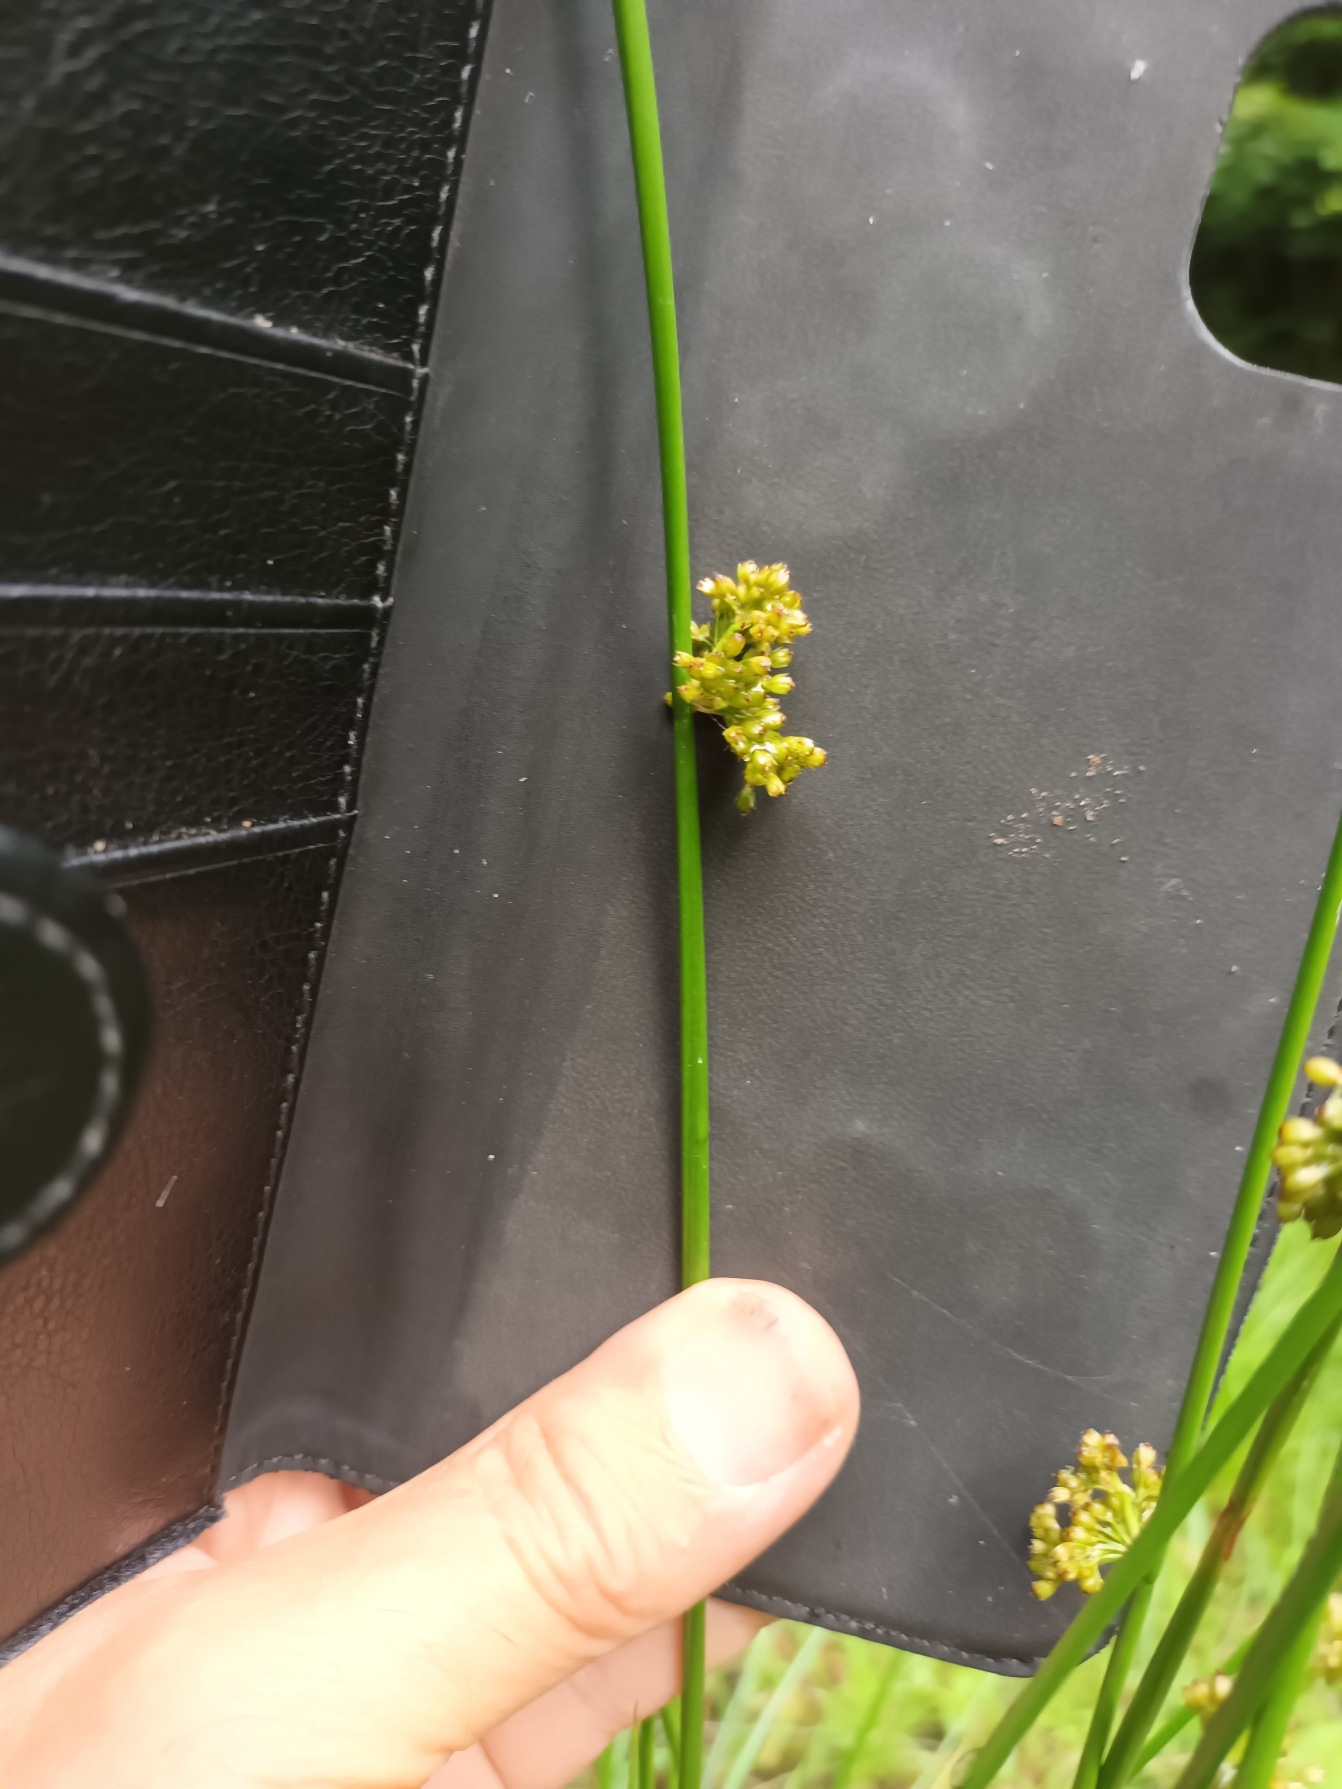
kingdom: Plantae
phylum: Tracheophyta
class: Liliopsida
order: Poales
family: Juncaceae
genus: Juncus
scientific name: Juncus effusus
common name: Lyse-siv
